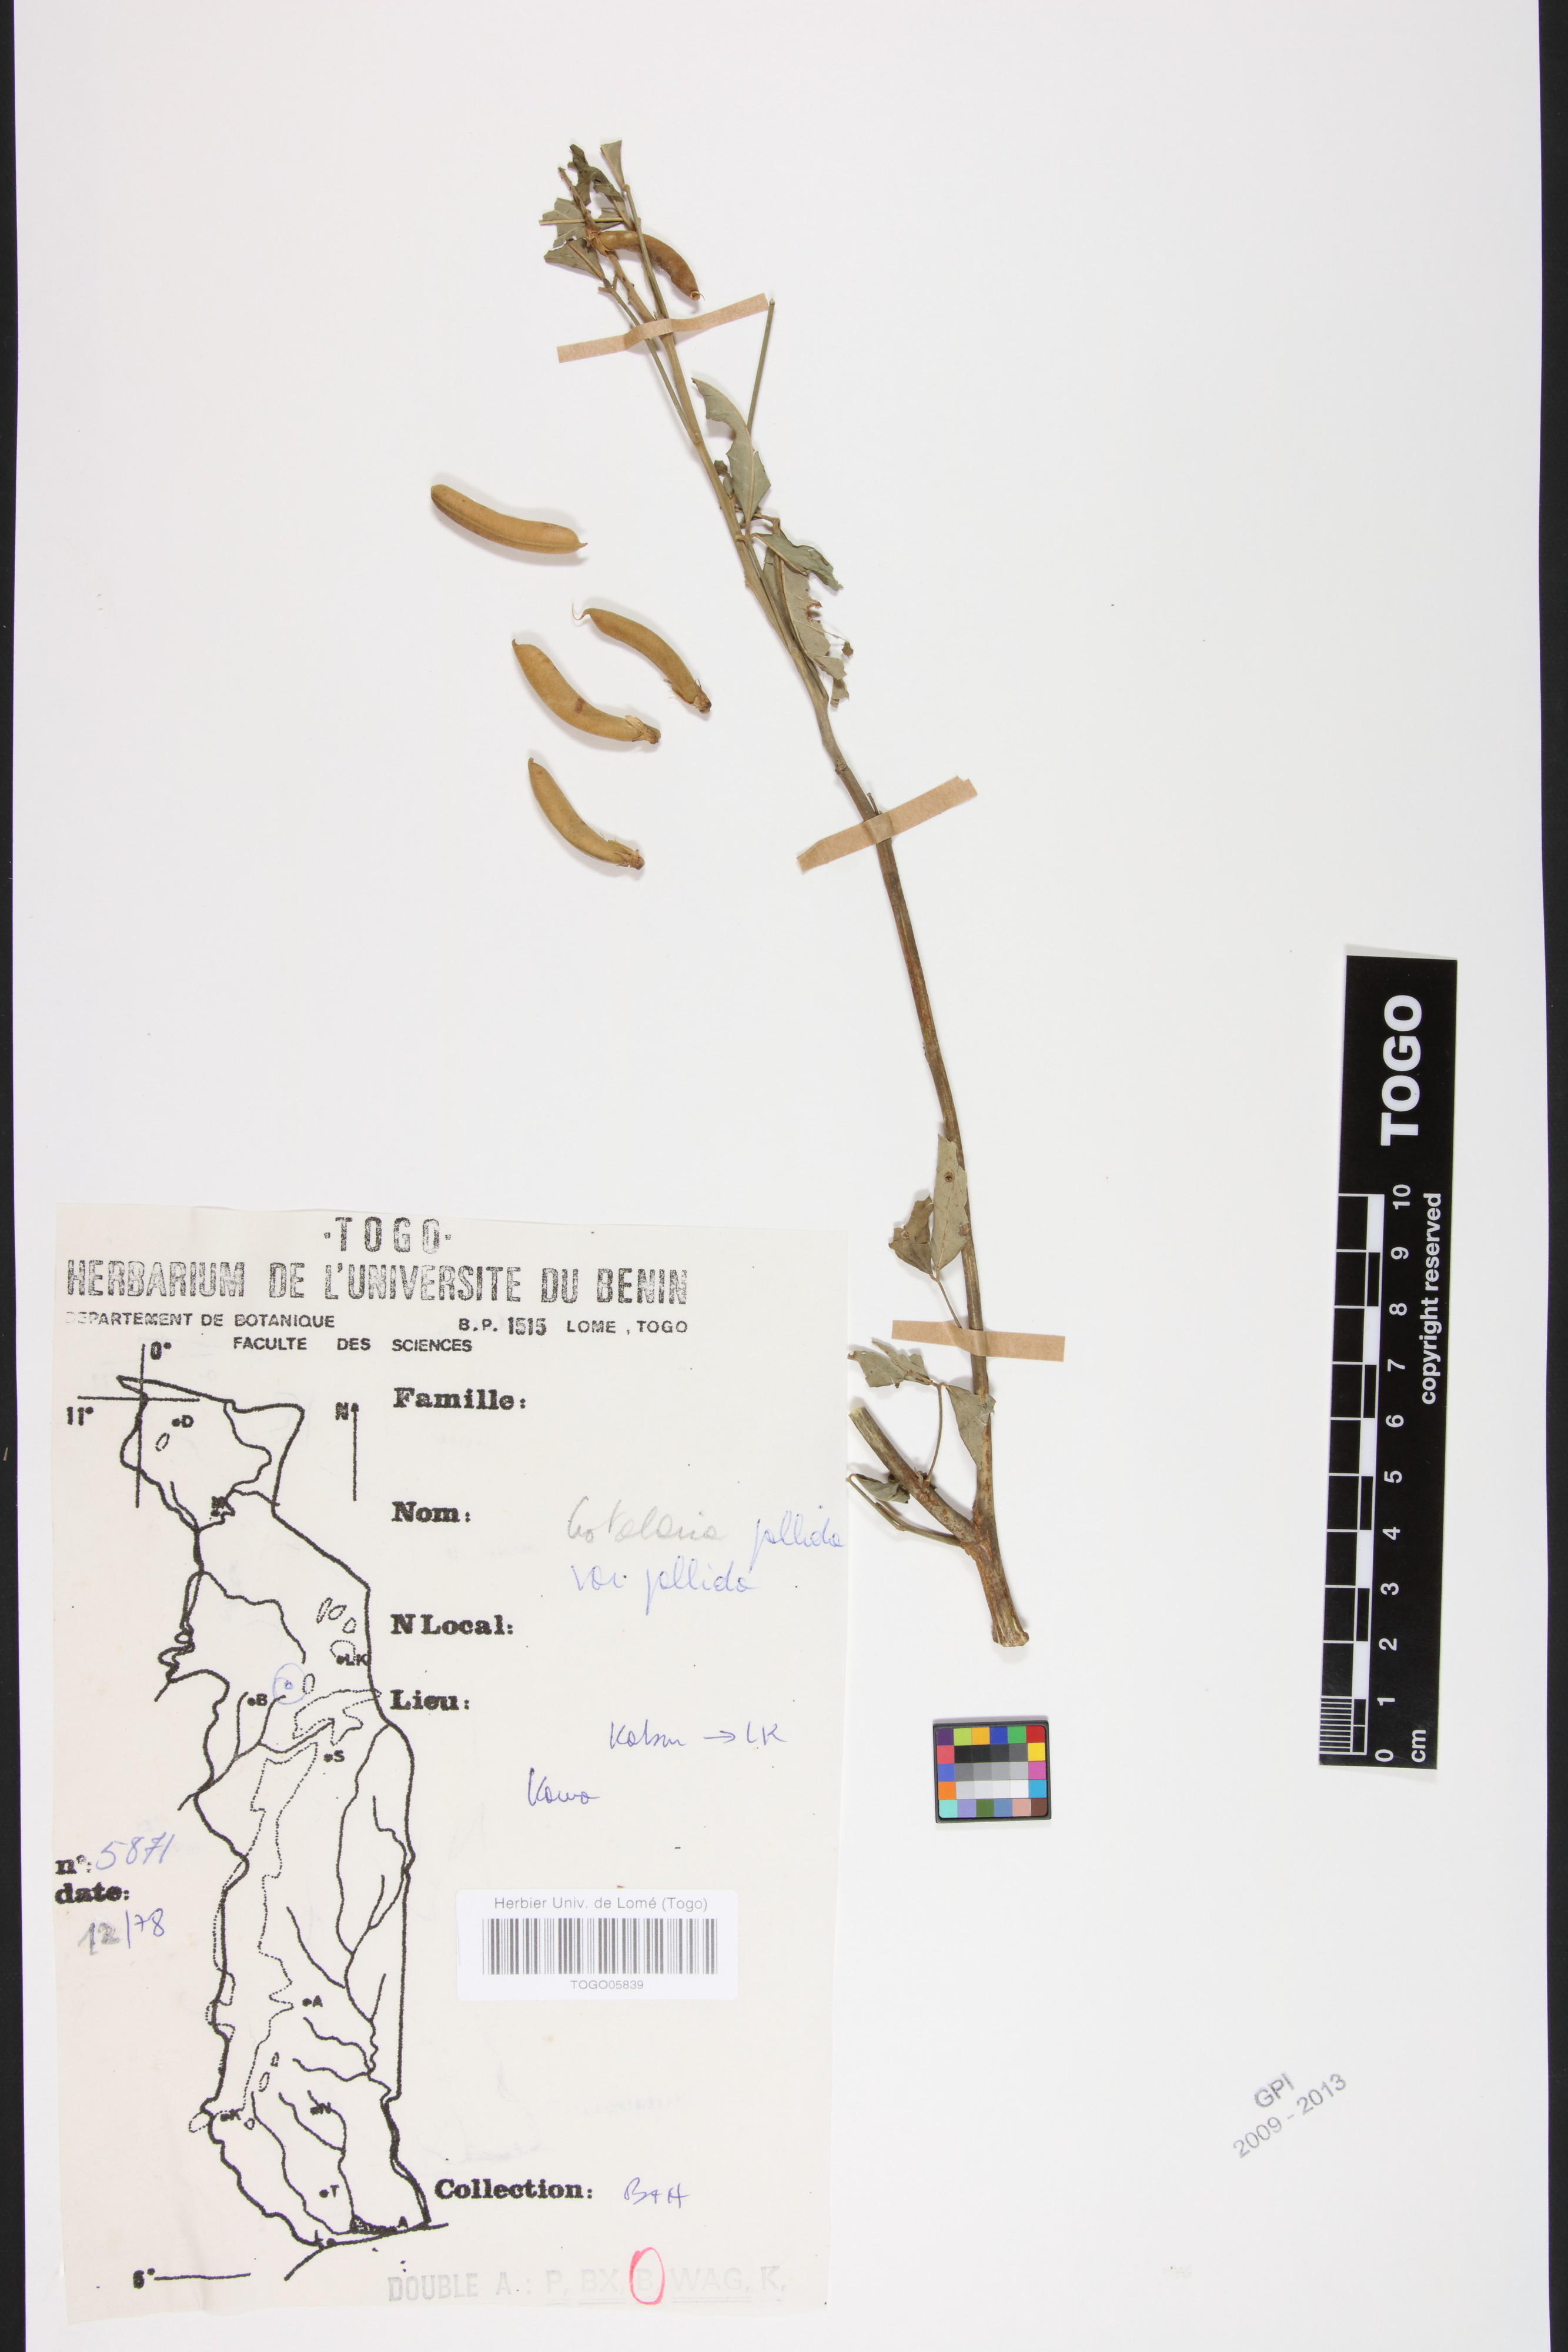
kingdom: Plantae
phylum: Tracheophyta
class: Magnoliopsida
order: Fabales
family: Fabaceae
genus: Crotalaria
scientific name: Crotalaria pallida
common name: Smooth rattlebox
